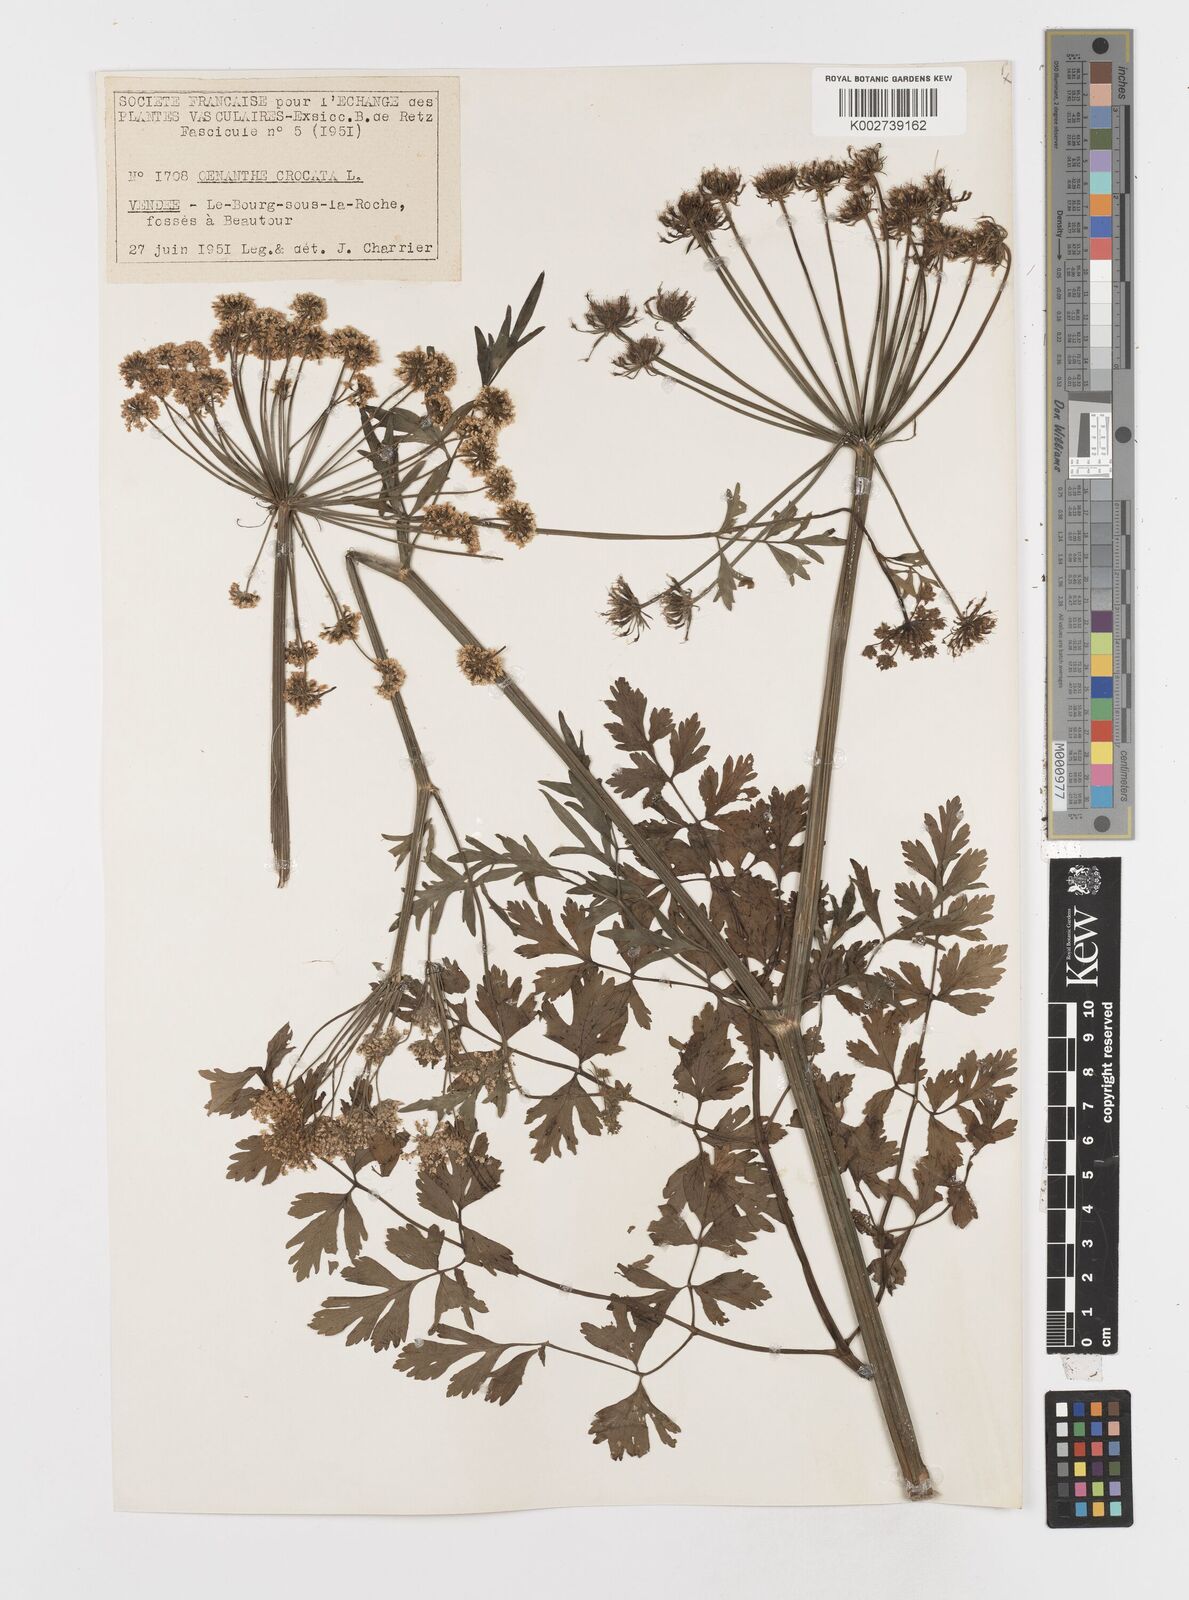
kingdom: Plantae
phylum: Tracheophyta
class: Magnoliopsida
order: Apiales
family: Apiaceae
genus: Oenanthe
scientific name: Oenanthe crocata
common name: Hemlock water-dropwort
